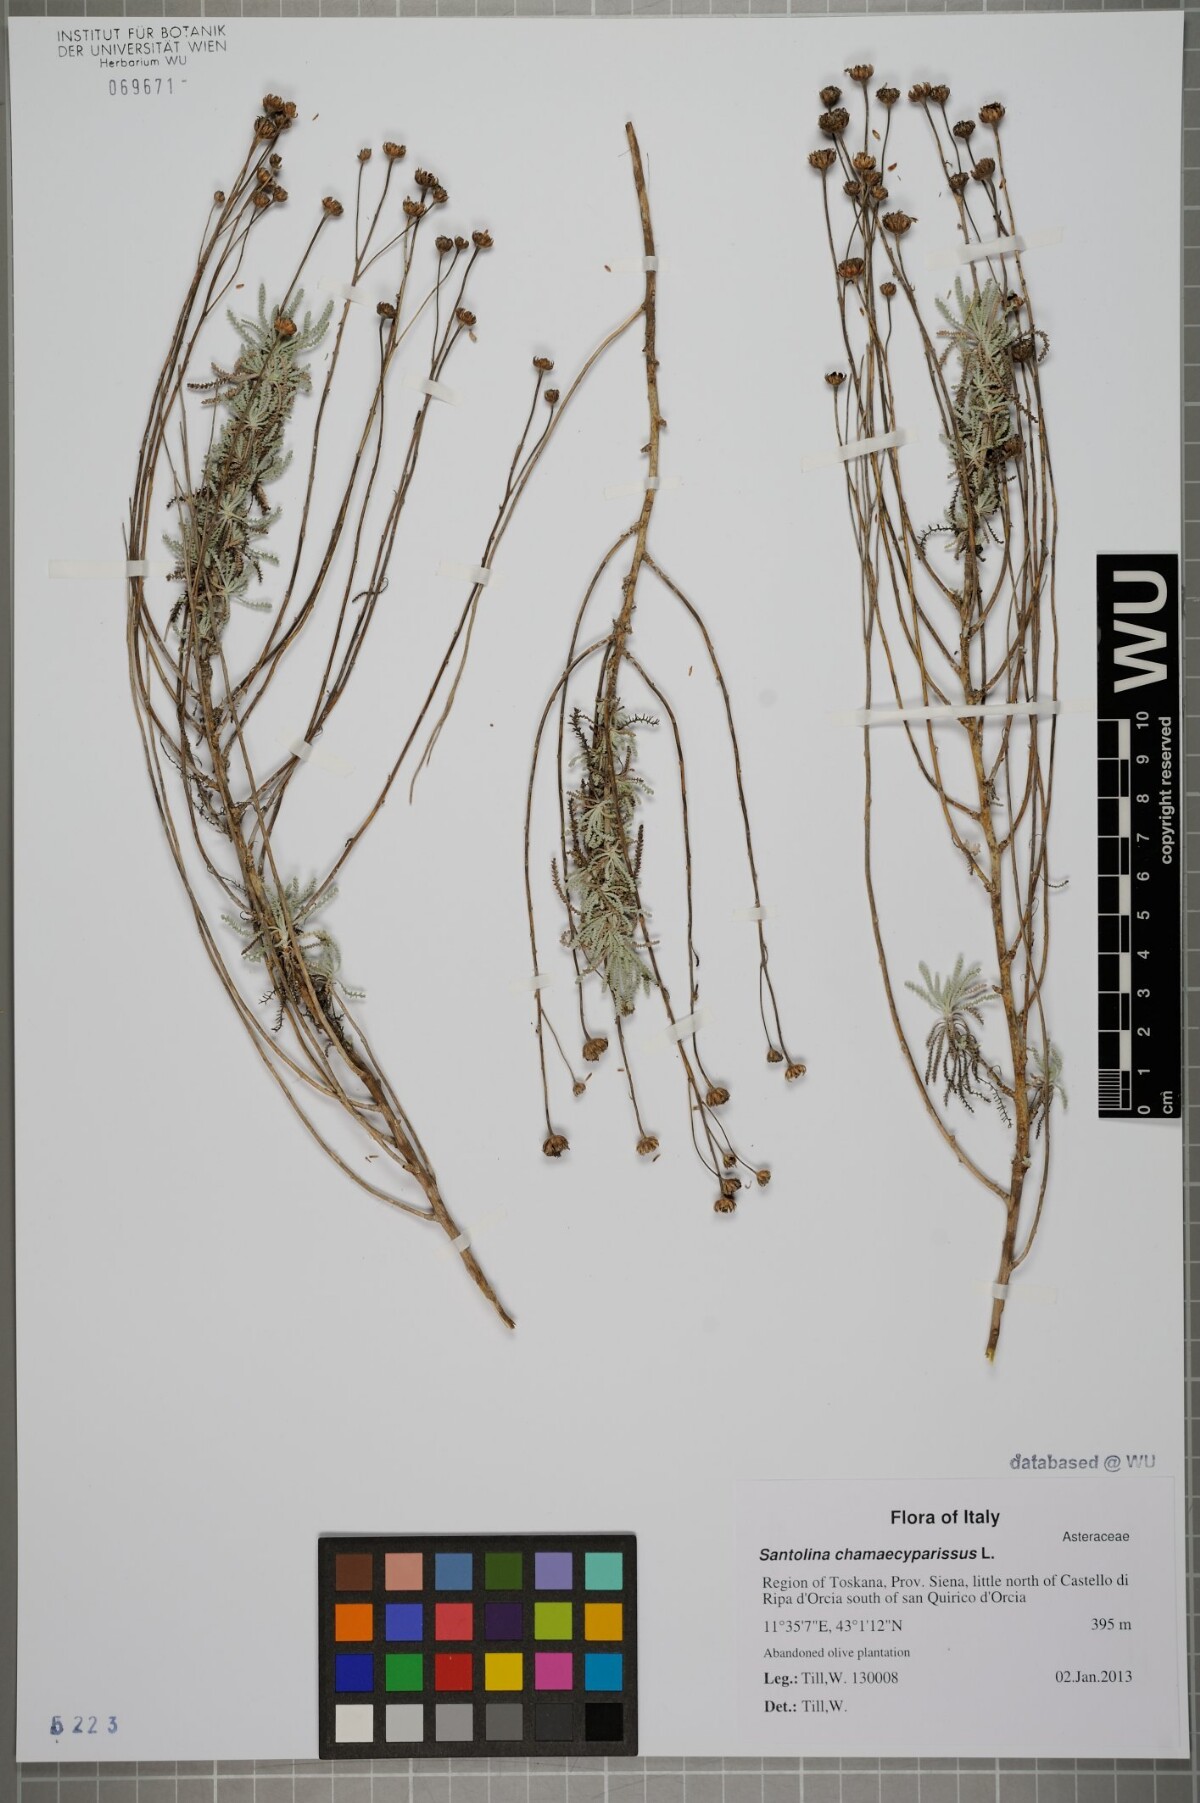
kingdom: Plantae
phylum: Tracheophyta
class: Magnoliopsida
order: Asterales
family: Asteraceae
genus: Santolina
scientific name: Santolina chamaecyparissus
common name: Lavender-cotton
